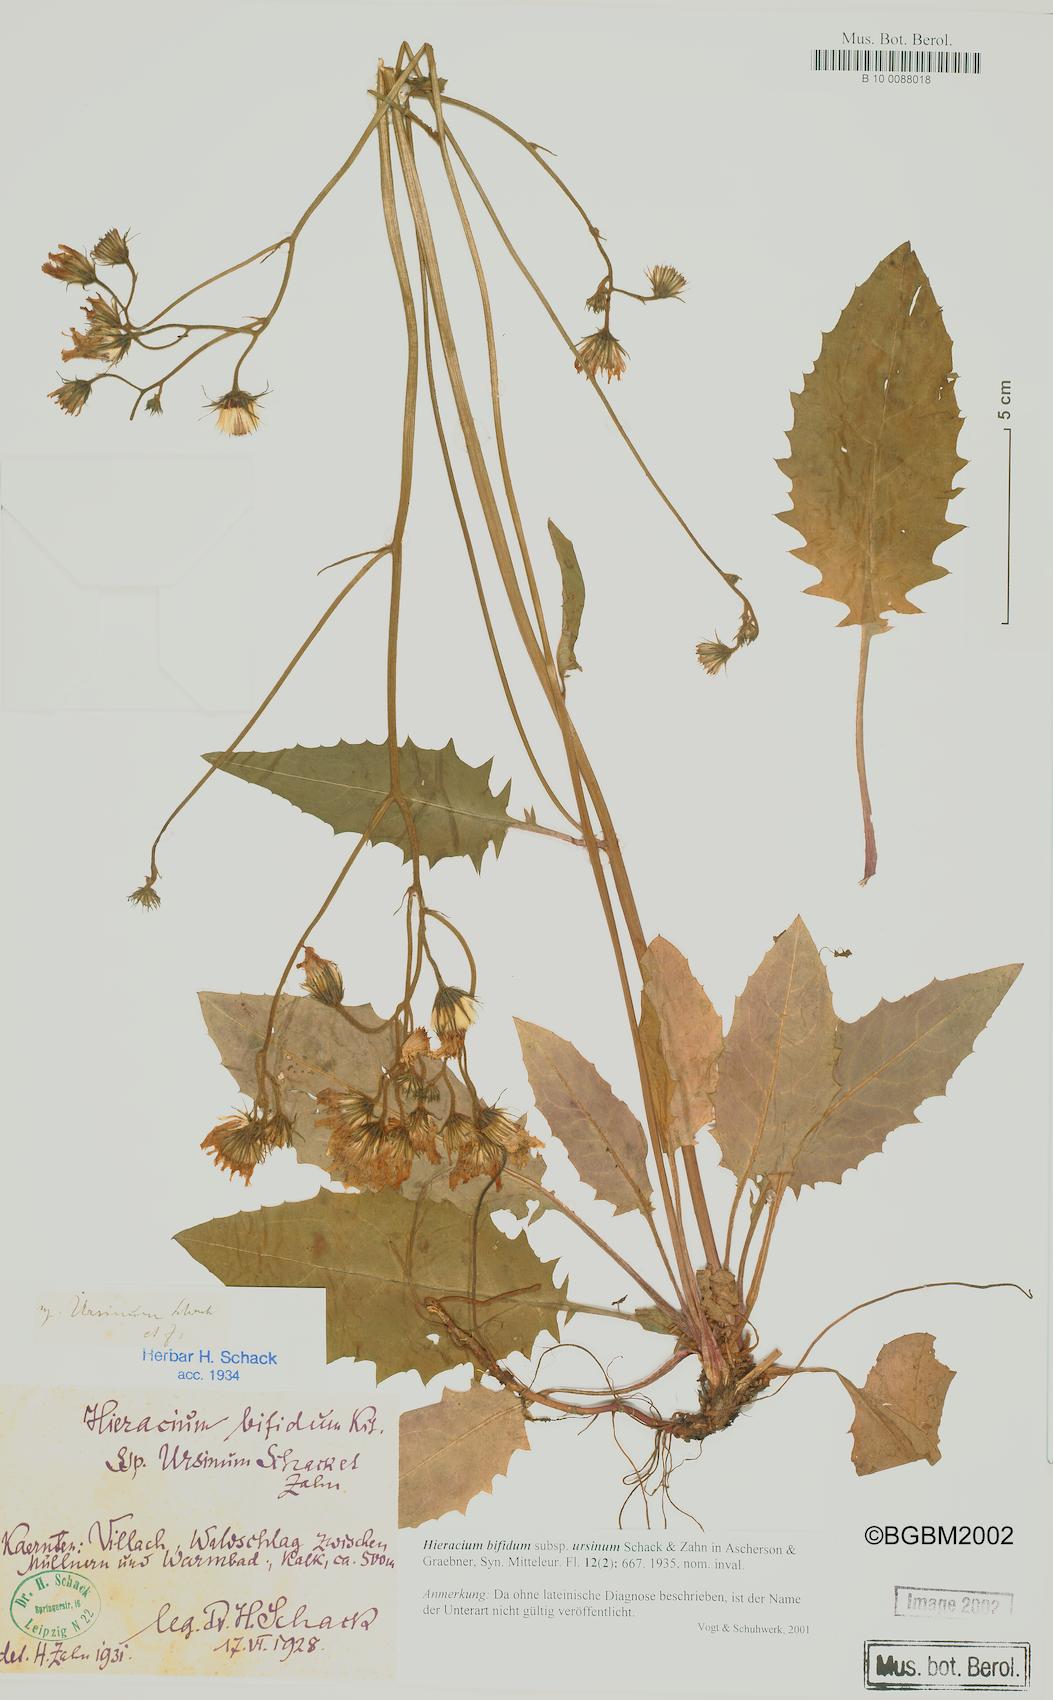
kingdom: Plantae
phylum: Tracheophyta
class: Magnoliopsida
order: Asterales
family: Asteraceae
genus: Hieracium
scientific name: Hieracium bifidum
